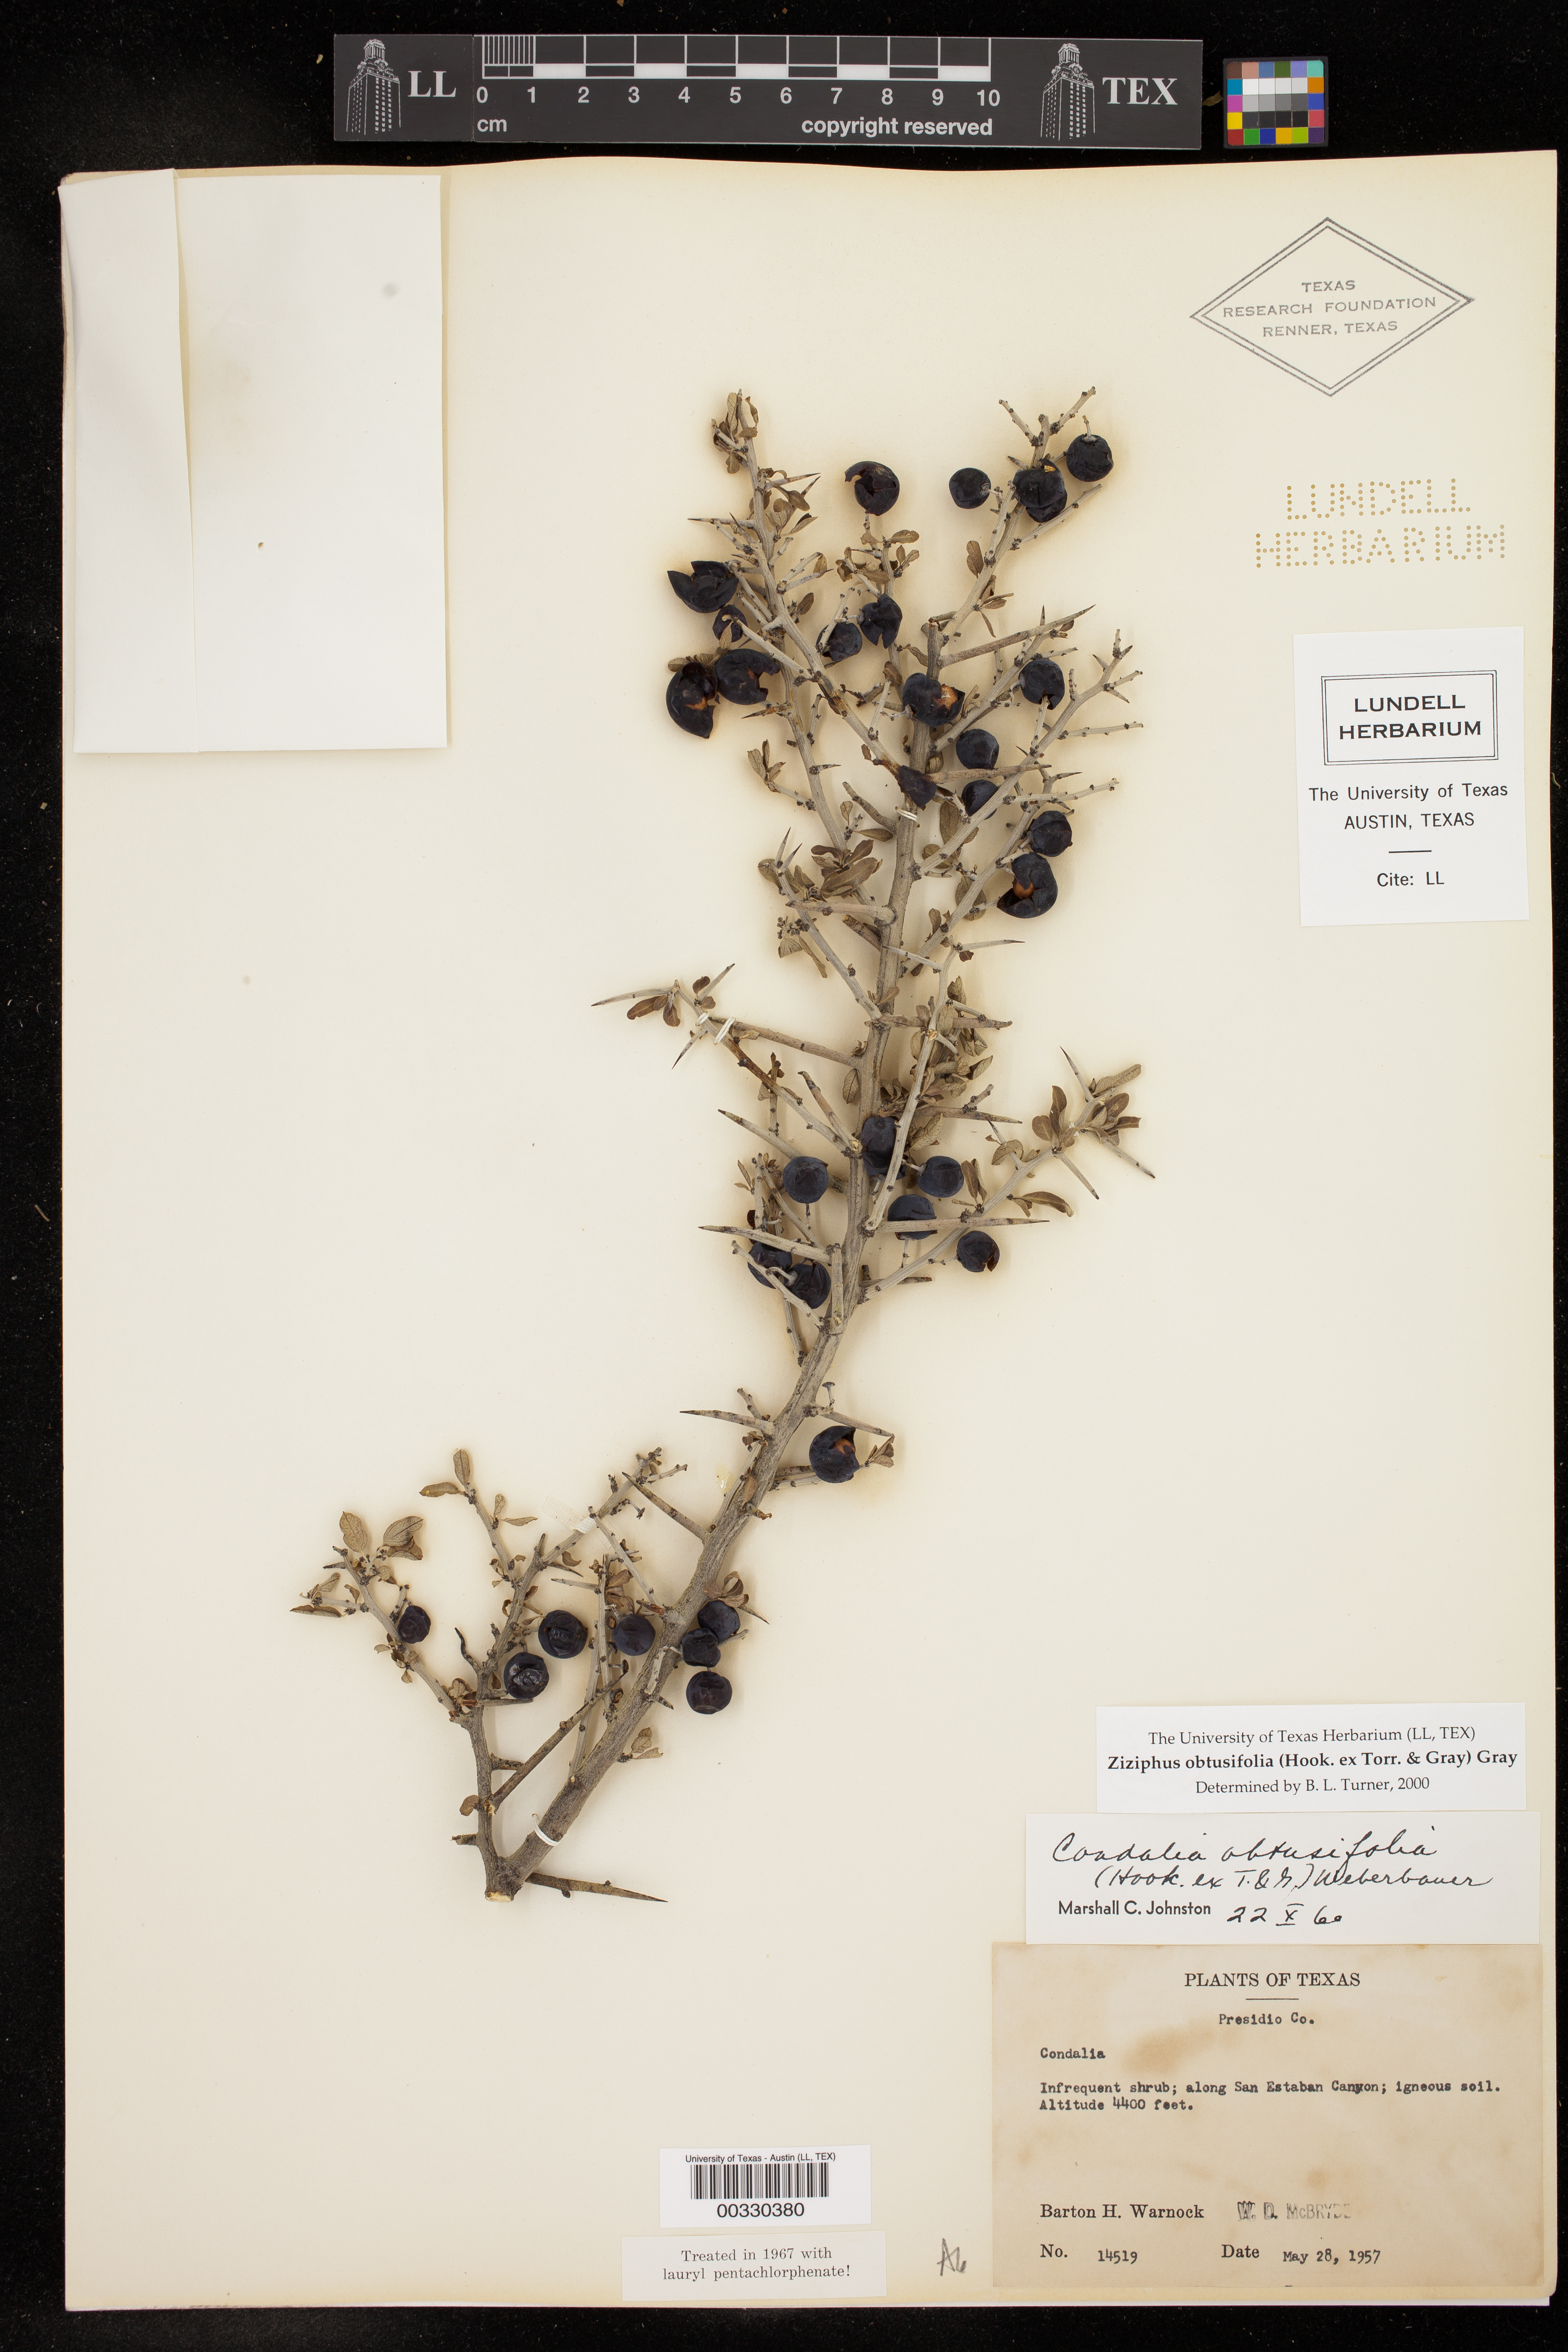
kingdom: Plantae
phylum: Tracheophyta
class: Magnoliopsida
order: Rosales
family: Rhamnaceae
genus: Sarcomphalus
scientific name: Sarcomphalus obtusifolius
